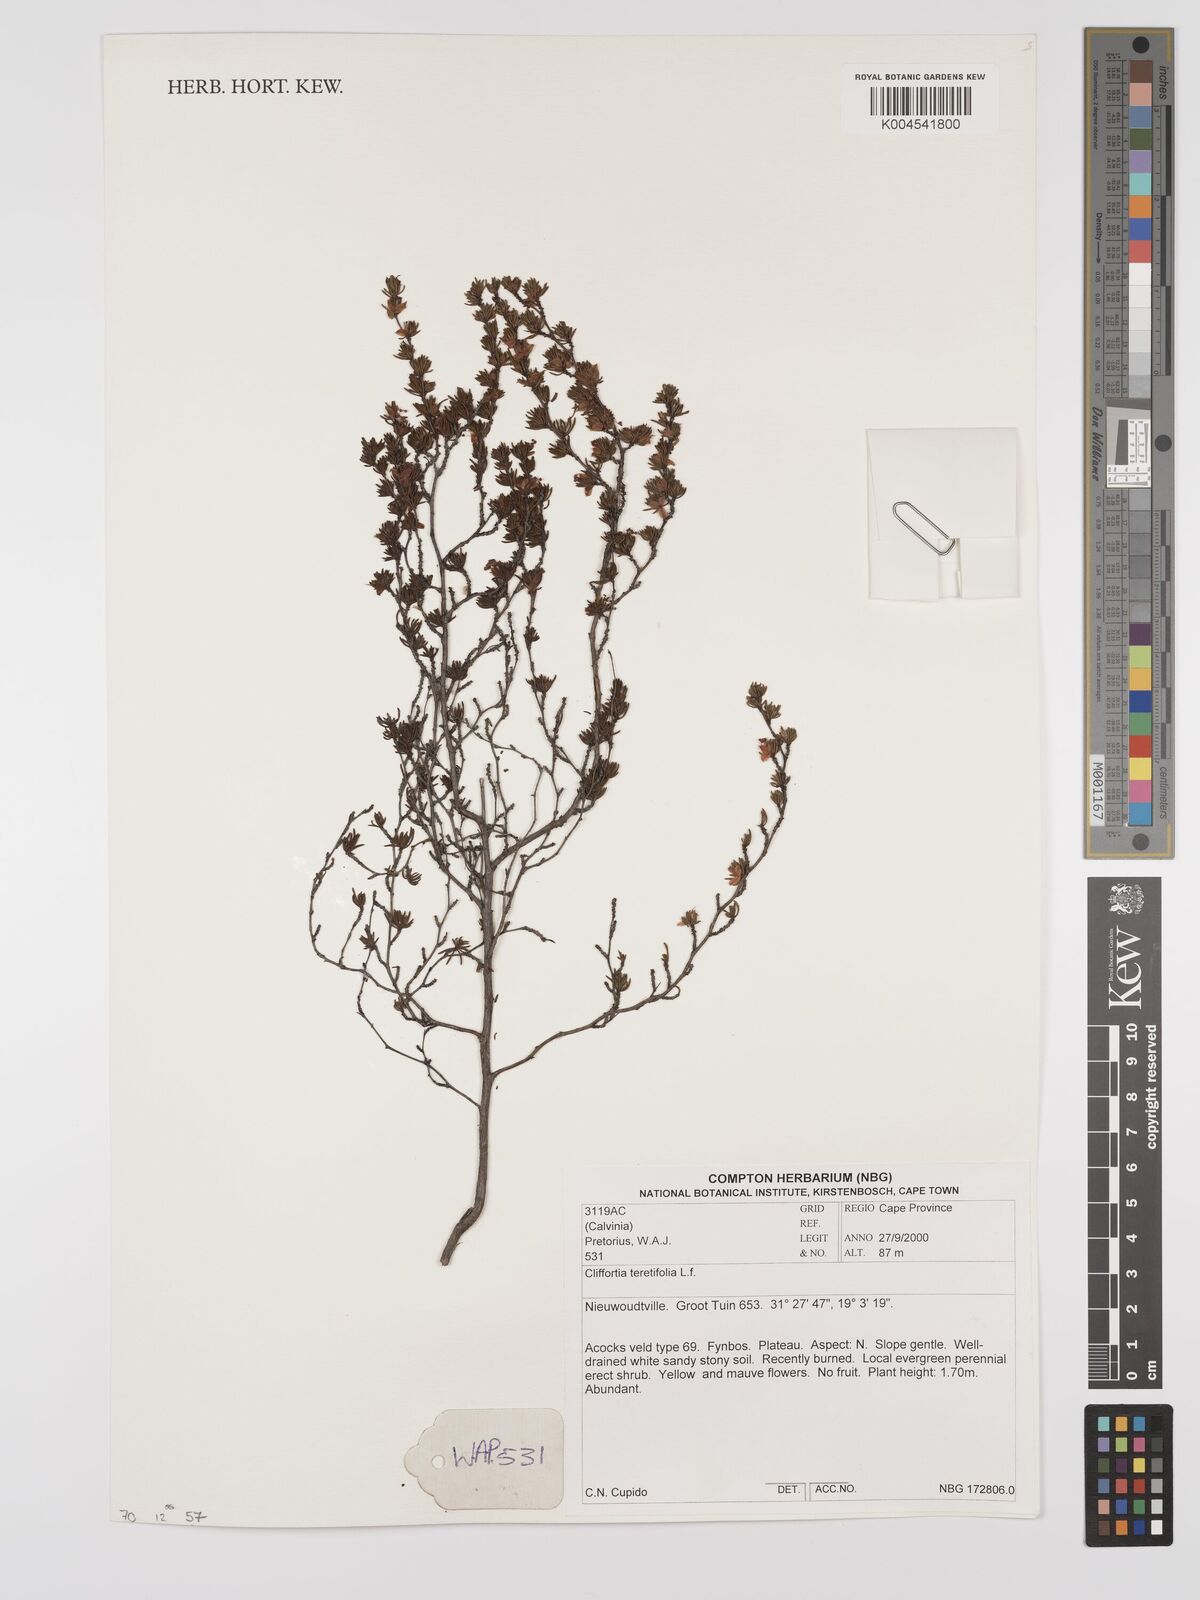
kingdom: Plantae
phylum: Tracheophyta
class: Magnoliopsida
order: Rosales
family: Rosaceae
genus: Cliffortia
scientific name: Cliffortia teretifolia
